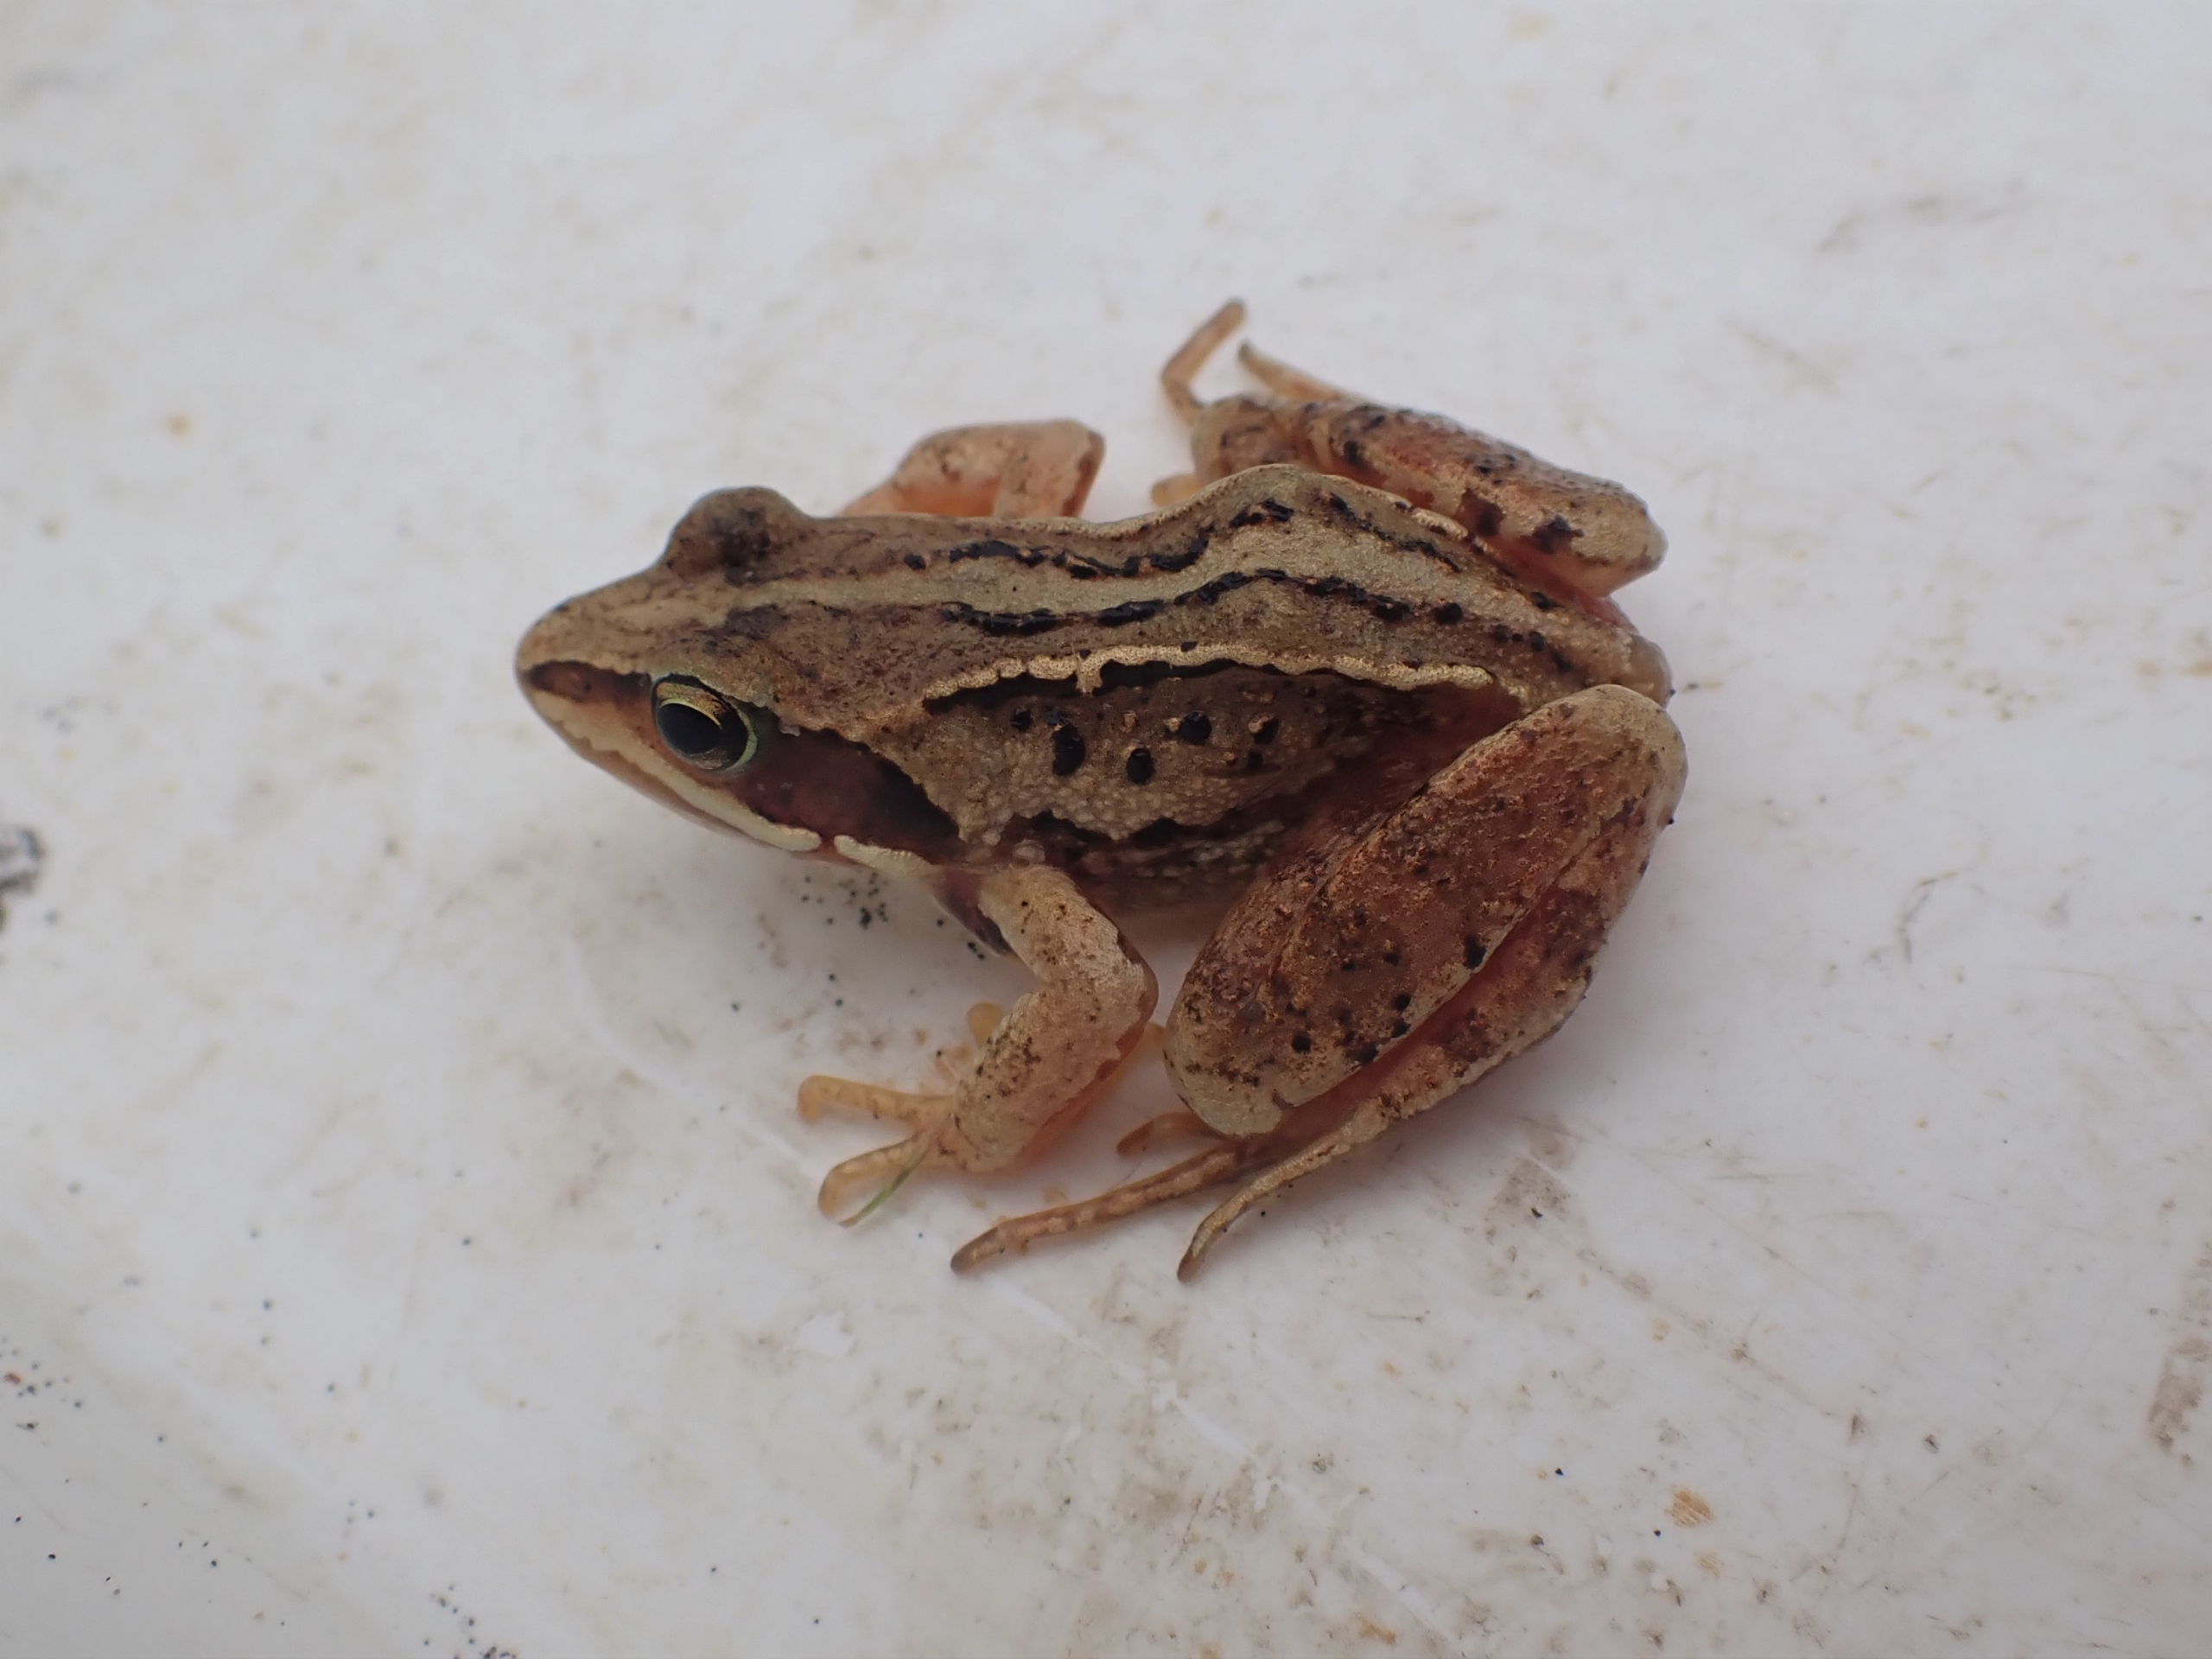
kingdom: Animalia
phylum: Chordata
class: Amphibia
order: Anura
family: Ranidae
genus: Rana
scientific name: Rana arvalis
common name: Spidssnudet frø
